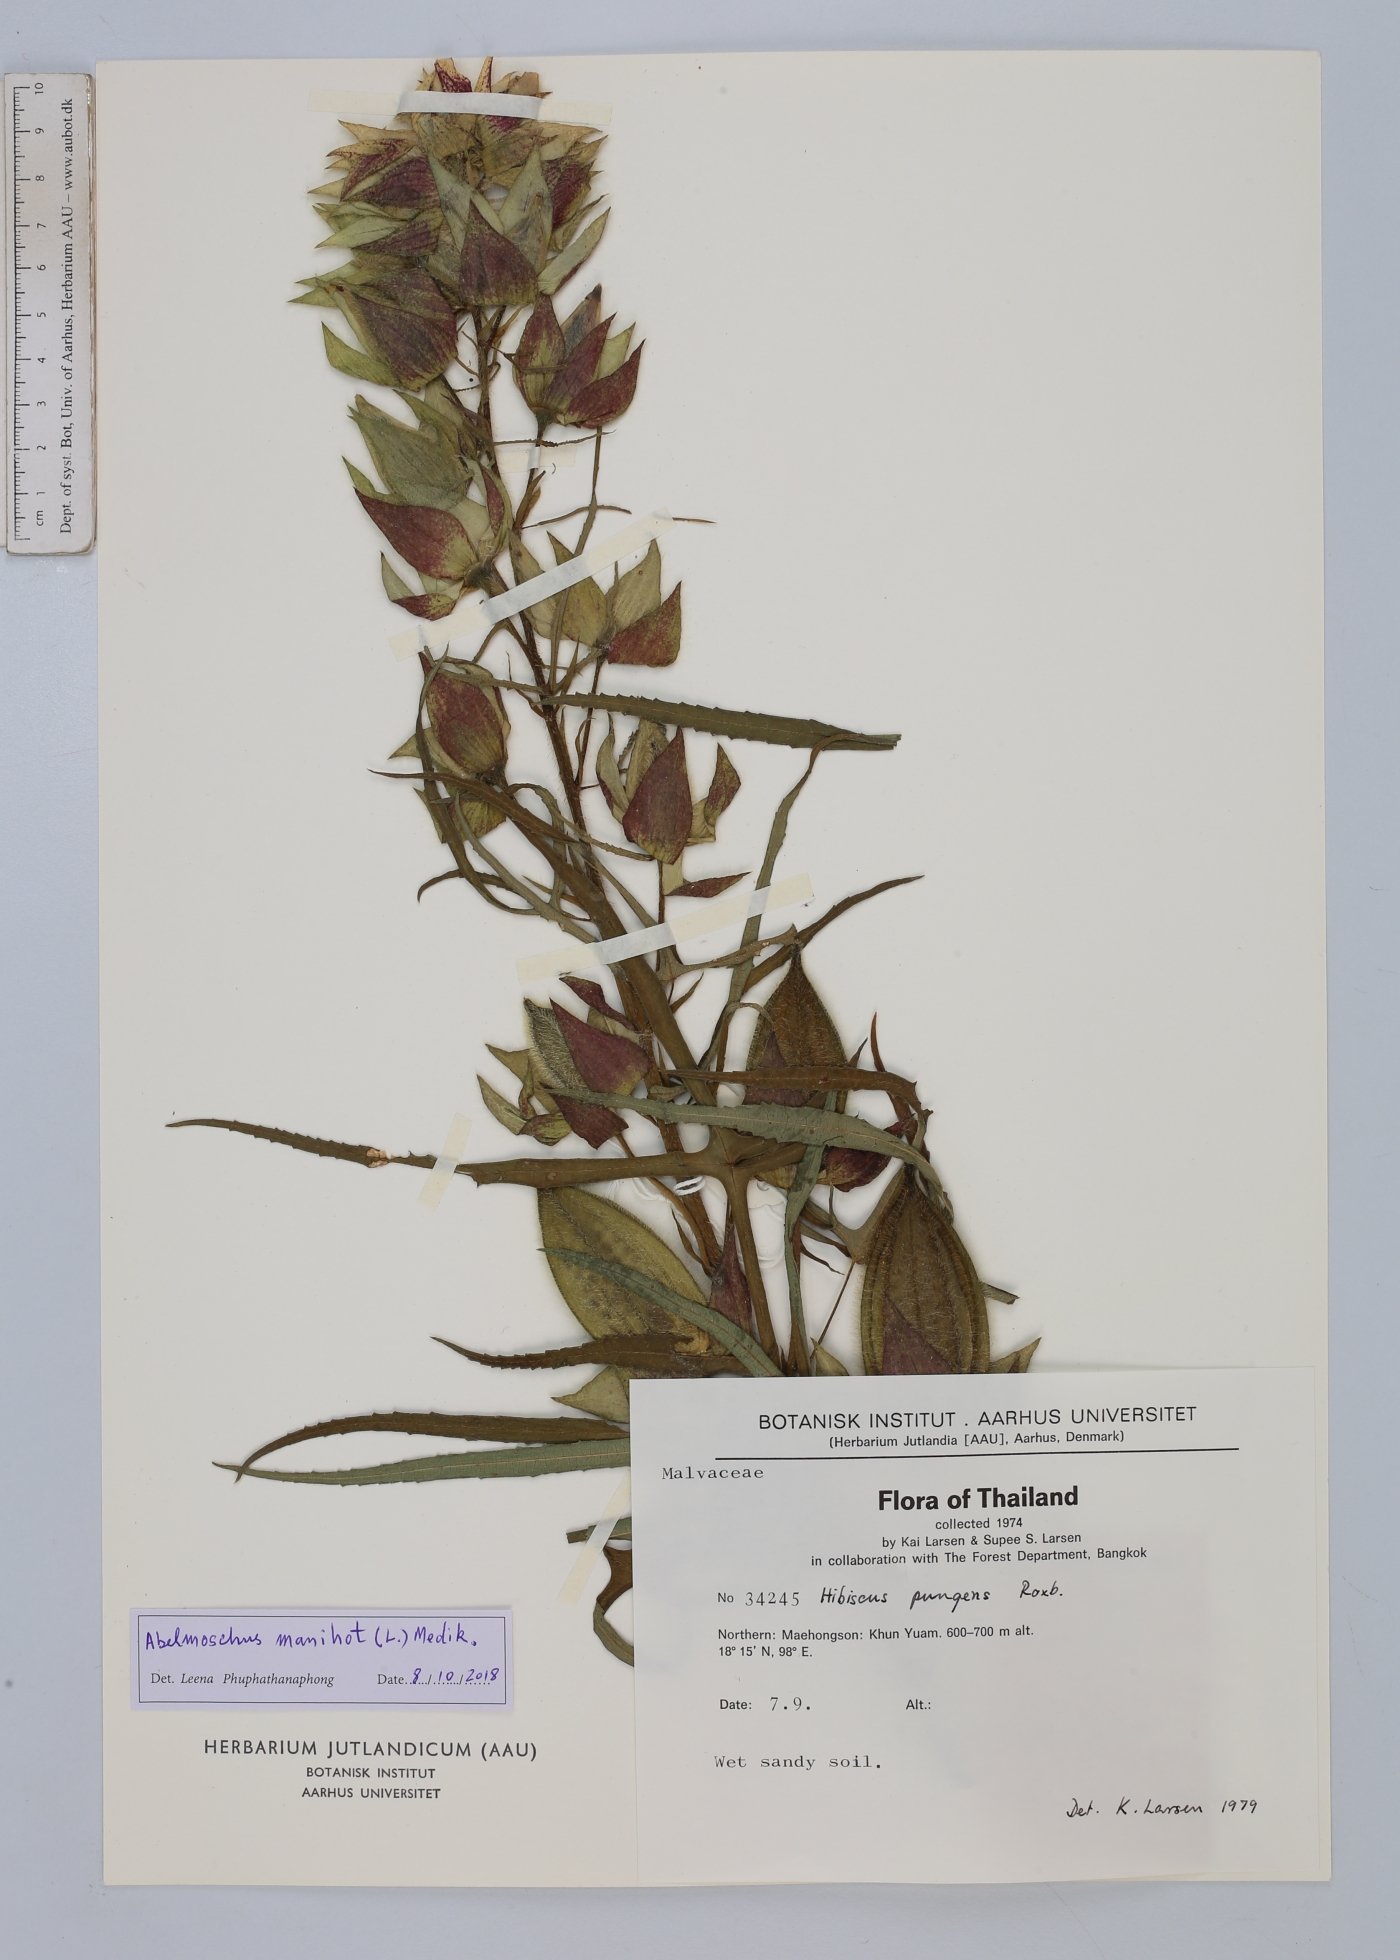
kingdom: Plantae
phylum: Tracheophyta
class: Magnoliopsida
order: Malvales
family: Malvaceae
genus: Abelmoschus
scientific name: Abelmoschus manihot
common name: Sunset muskmallow
